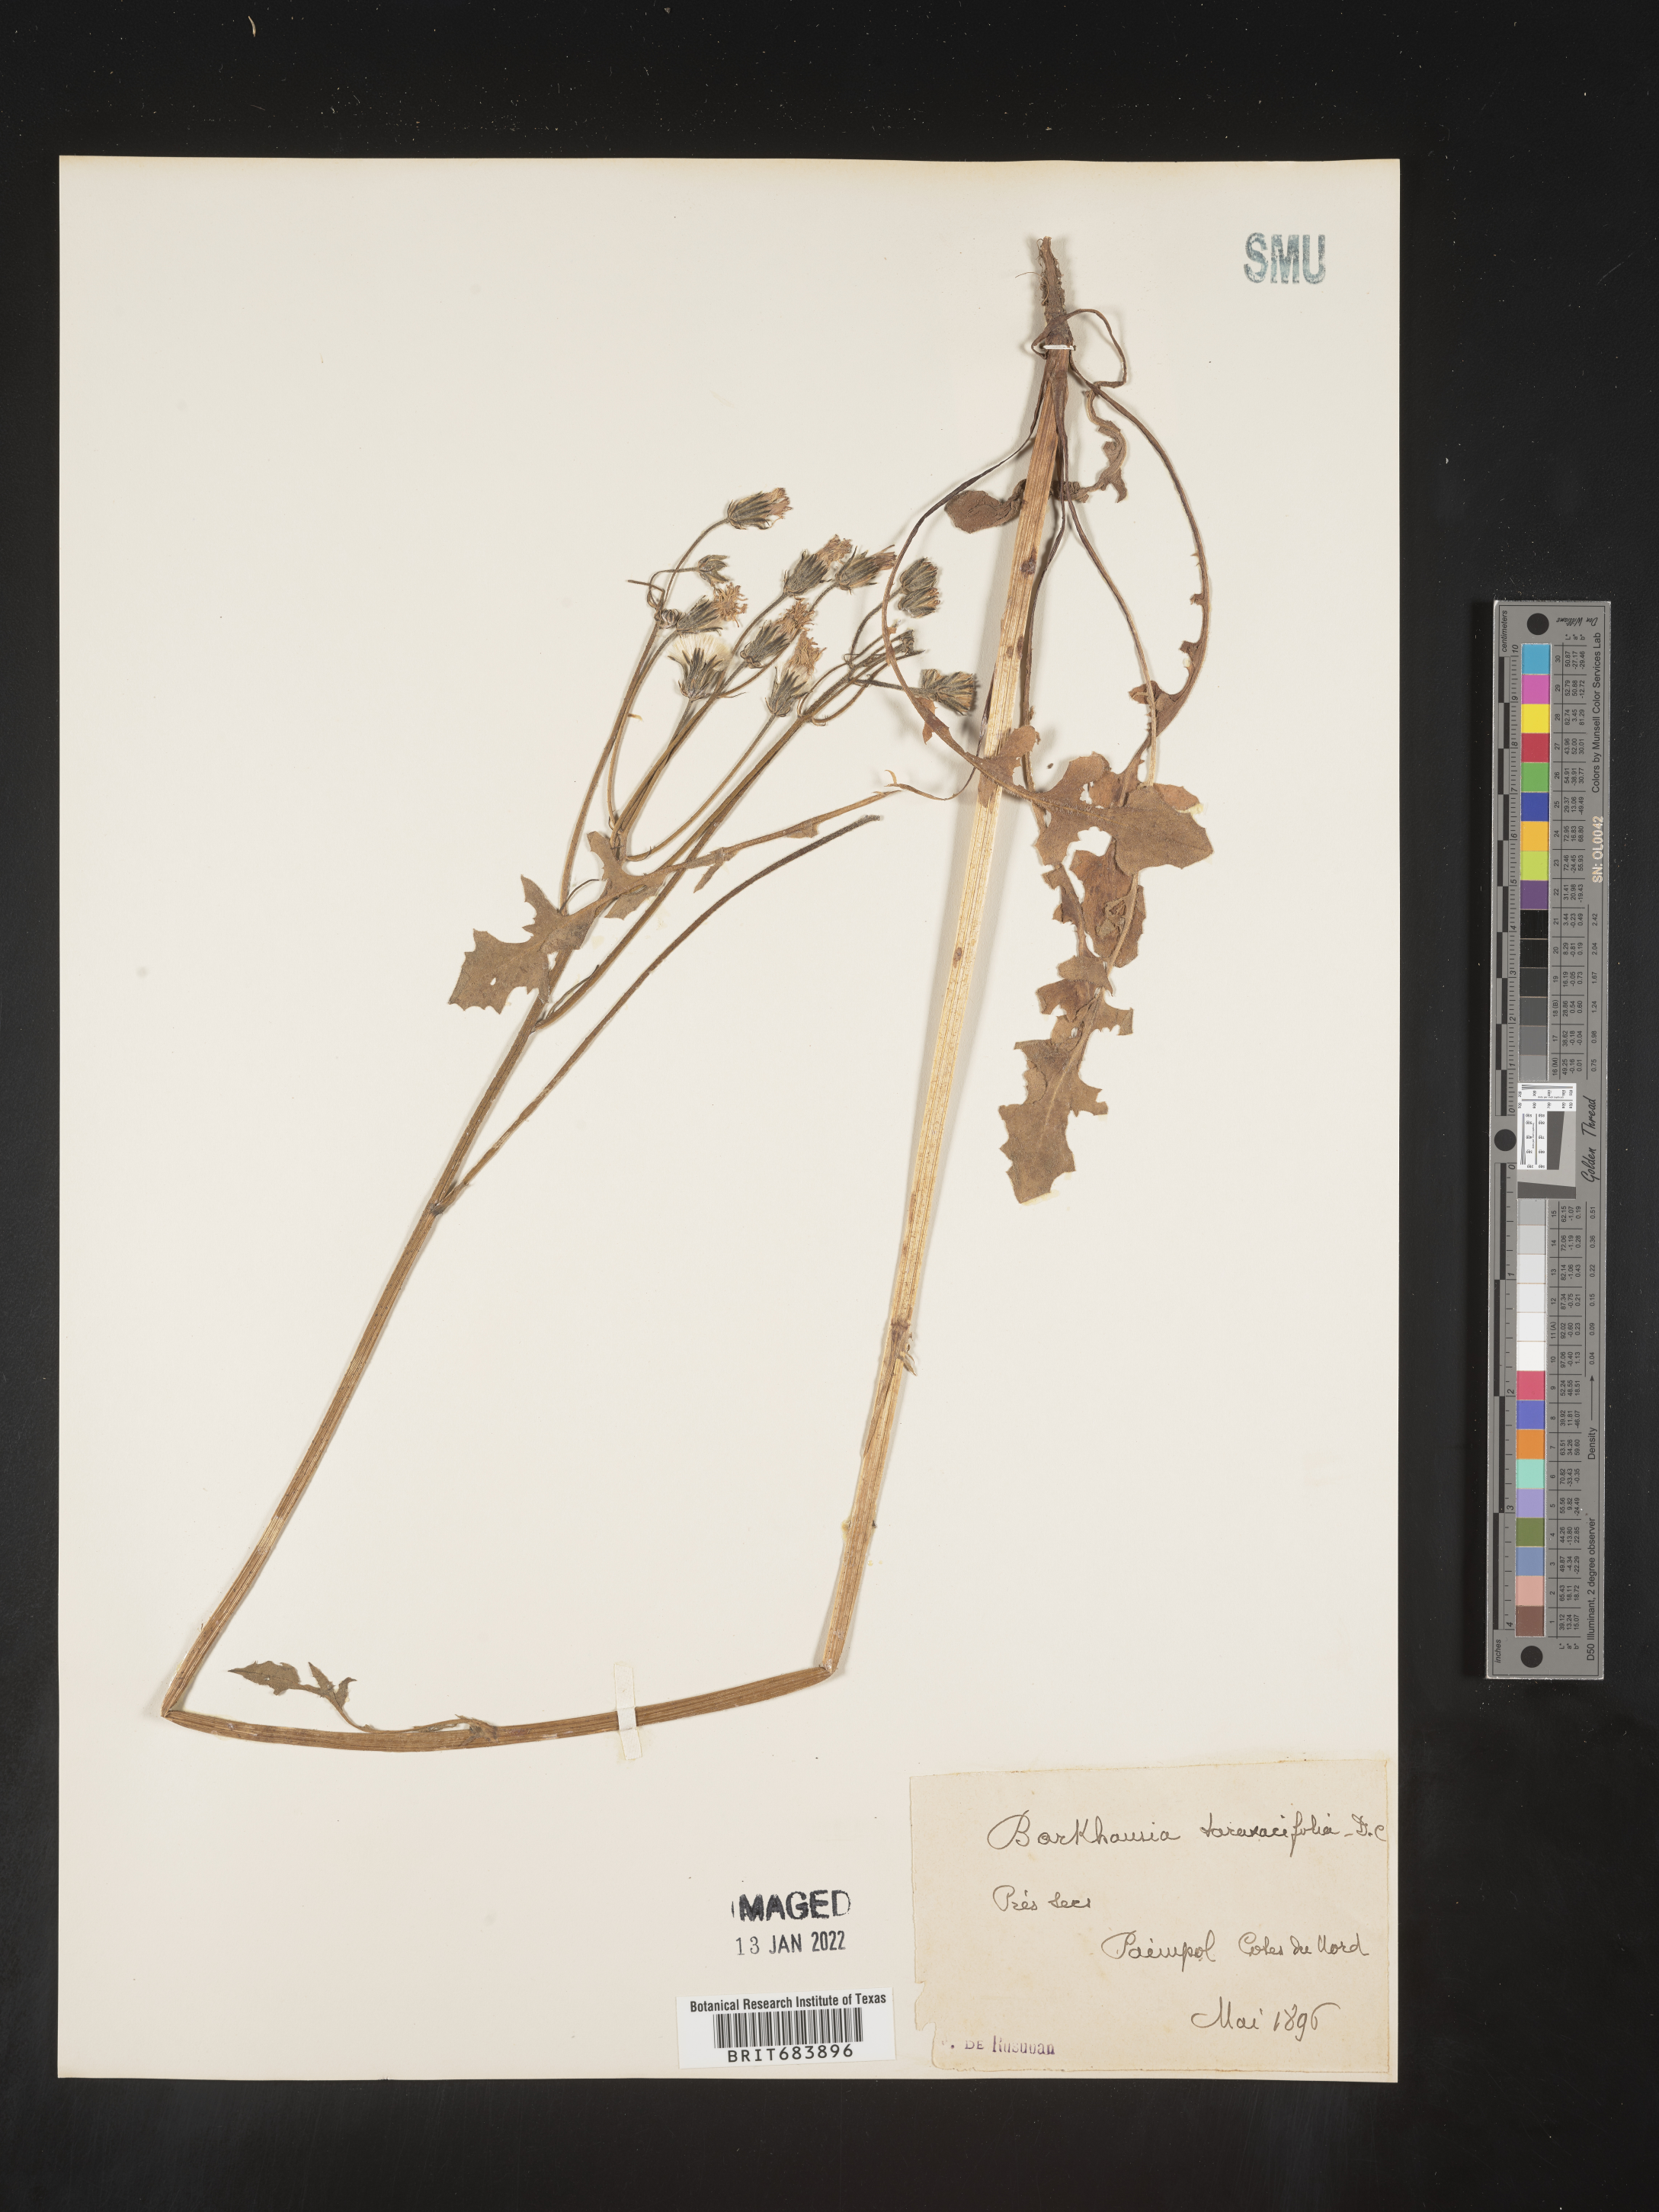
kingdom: Plantae
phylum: Tracheophyta
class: Magnoliopsida
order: Asterales
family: Asteraceae
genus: Crepis
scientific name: Crepis
